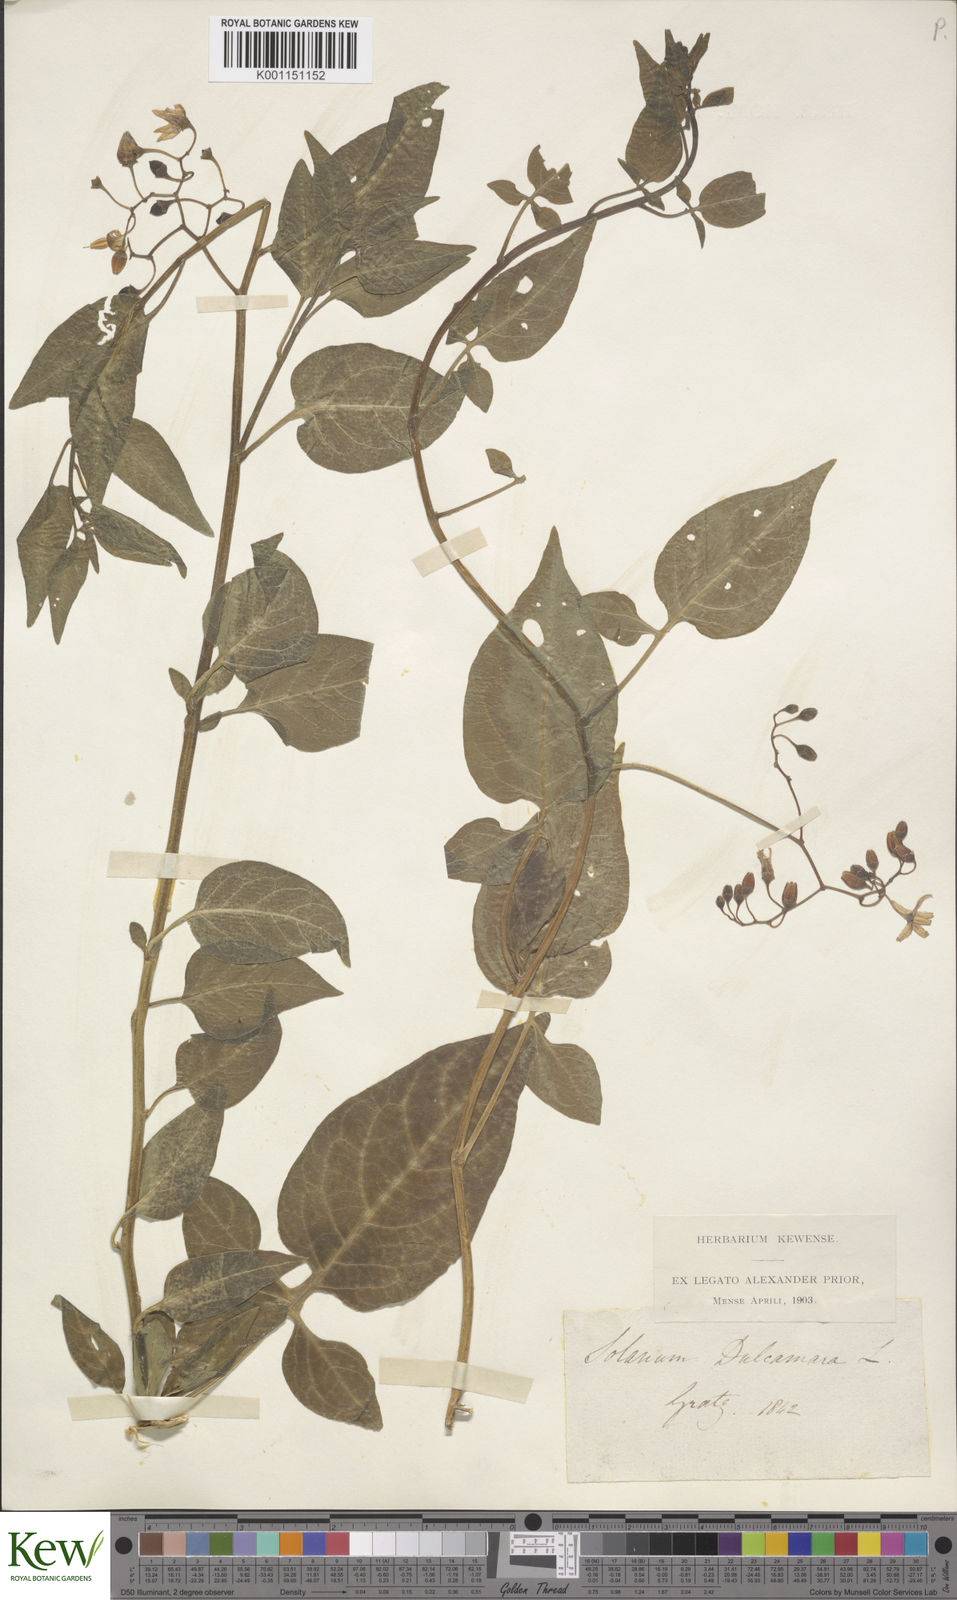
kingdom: Plantae
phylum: Tracheophyta
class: Magnoliopsida
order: Solanales
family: Solanaceae
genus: Solanum
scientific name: Solanum dulcamara
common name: Climbing nightshade
